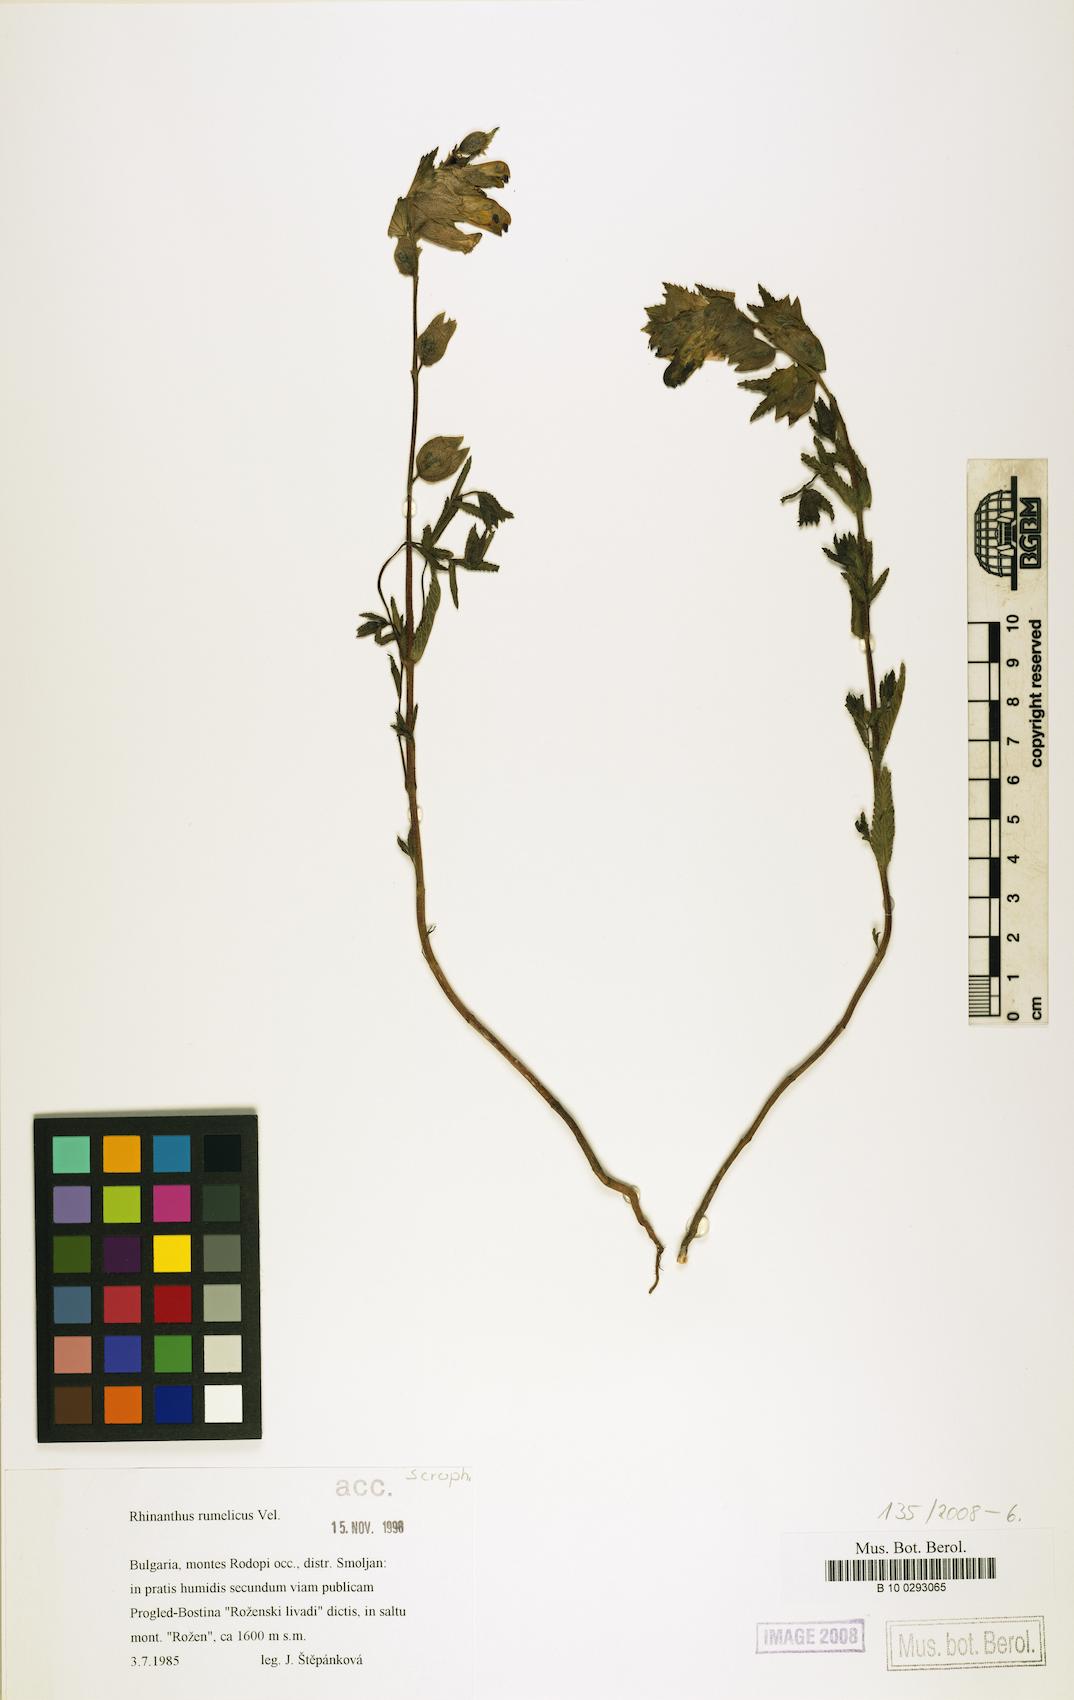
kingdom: Plantae
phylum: Tracheophyta
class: Magnoliopsida
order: Lamiales
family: Orobanchaceae
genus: Rhinanthus
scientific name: Rhinanthus rumelicus
